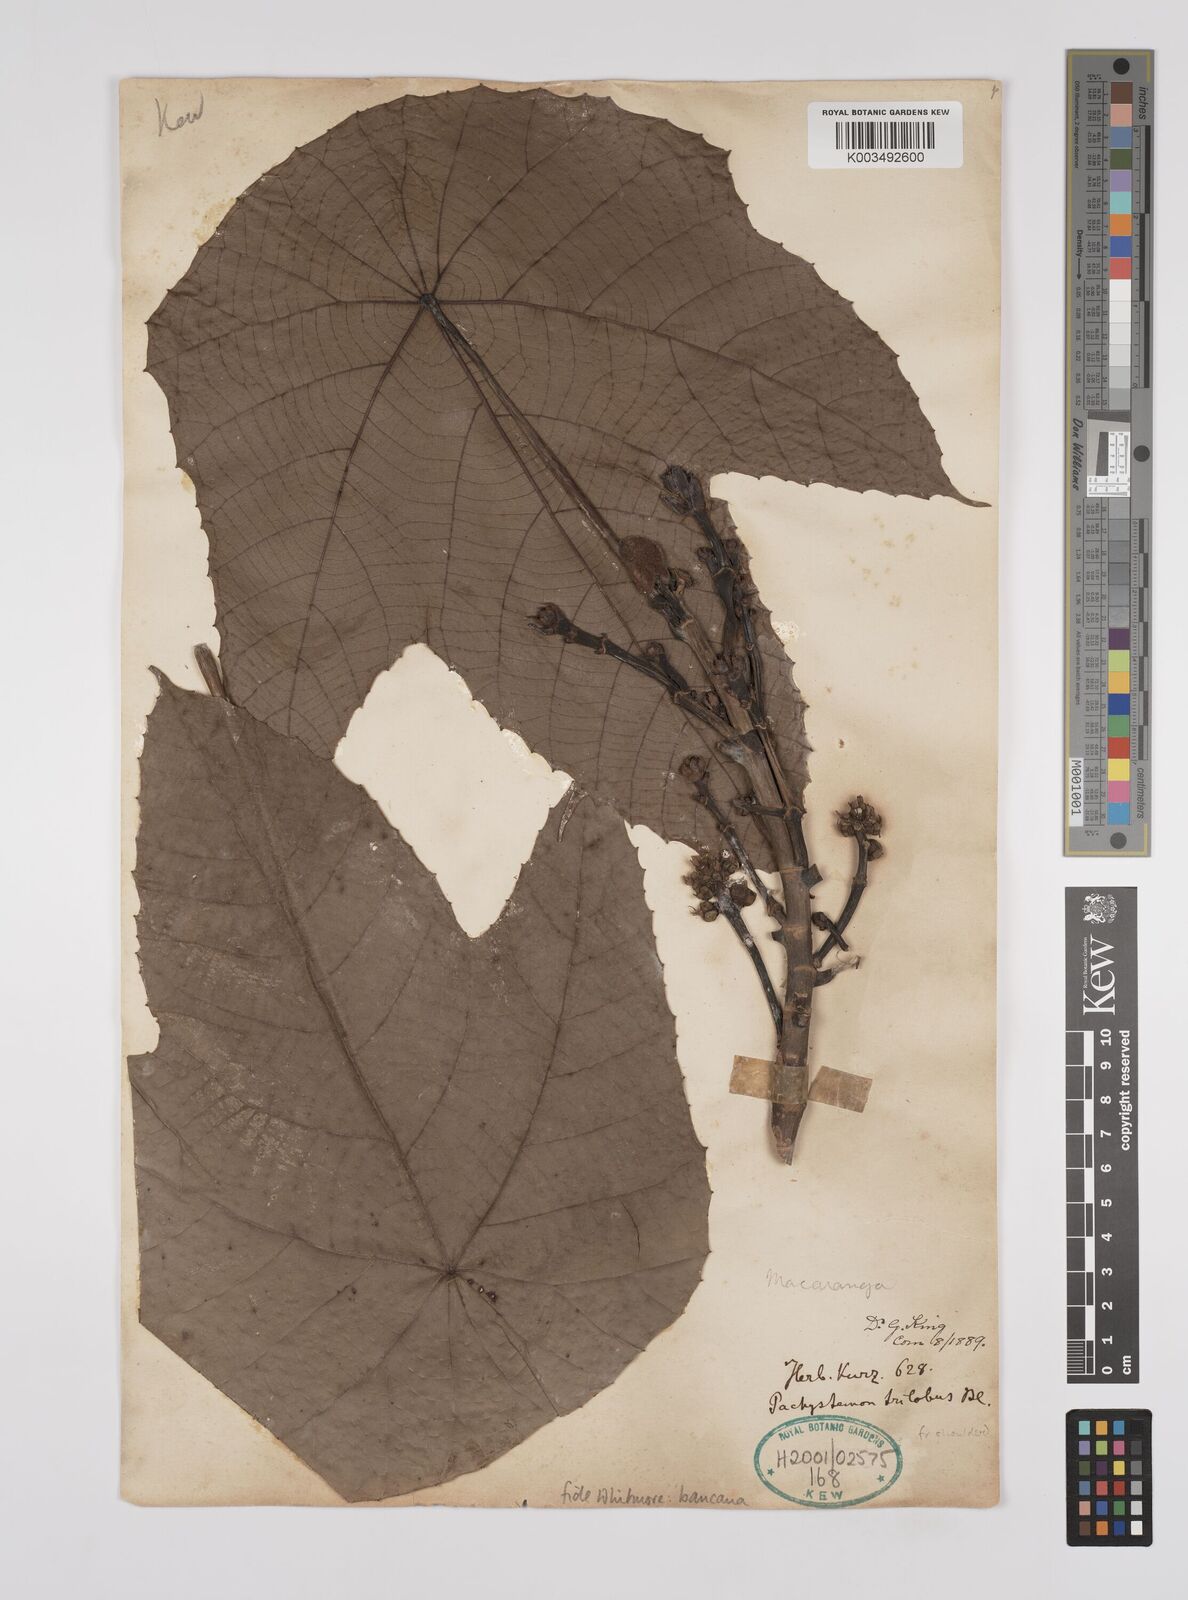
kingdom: Plantae
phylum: Tracheophyta
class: Magnoliopsida
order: Malpighiales
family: Euphorbiaceae
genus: Macaranga
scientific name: Macaranga bancana
